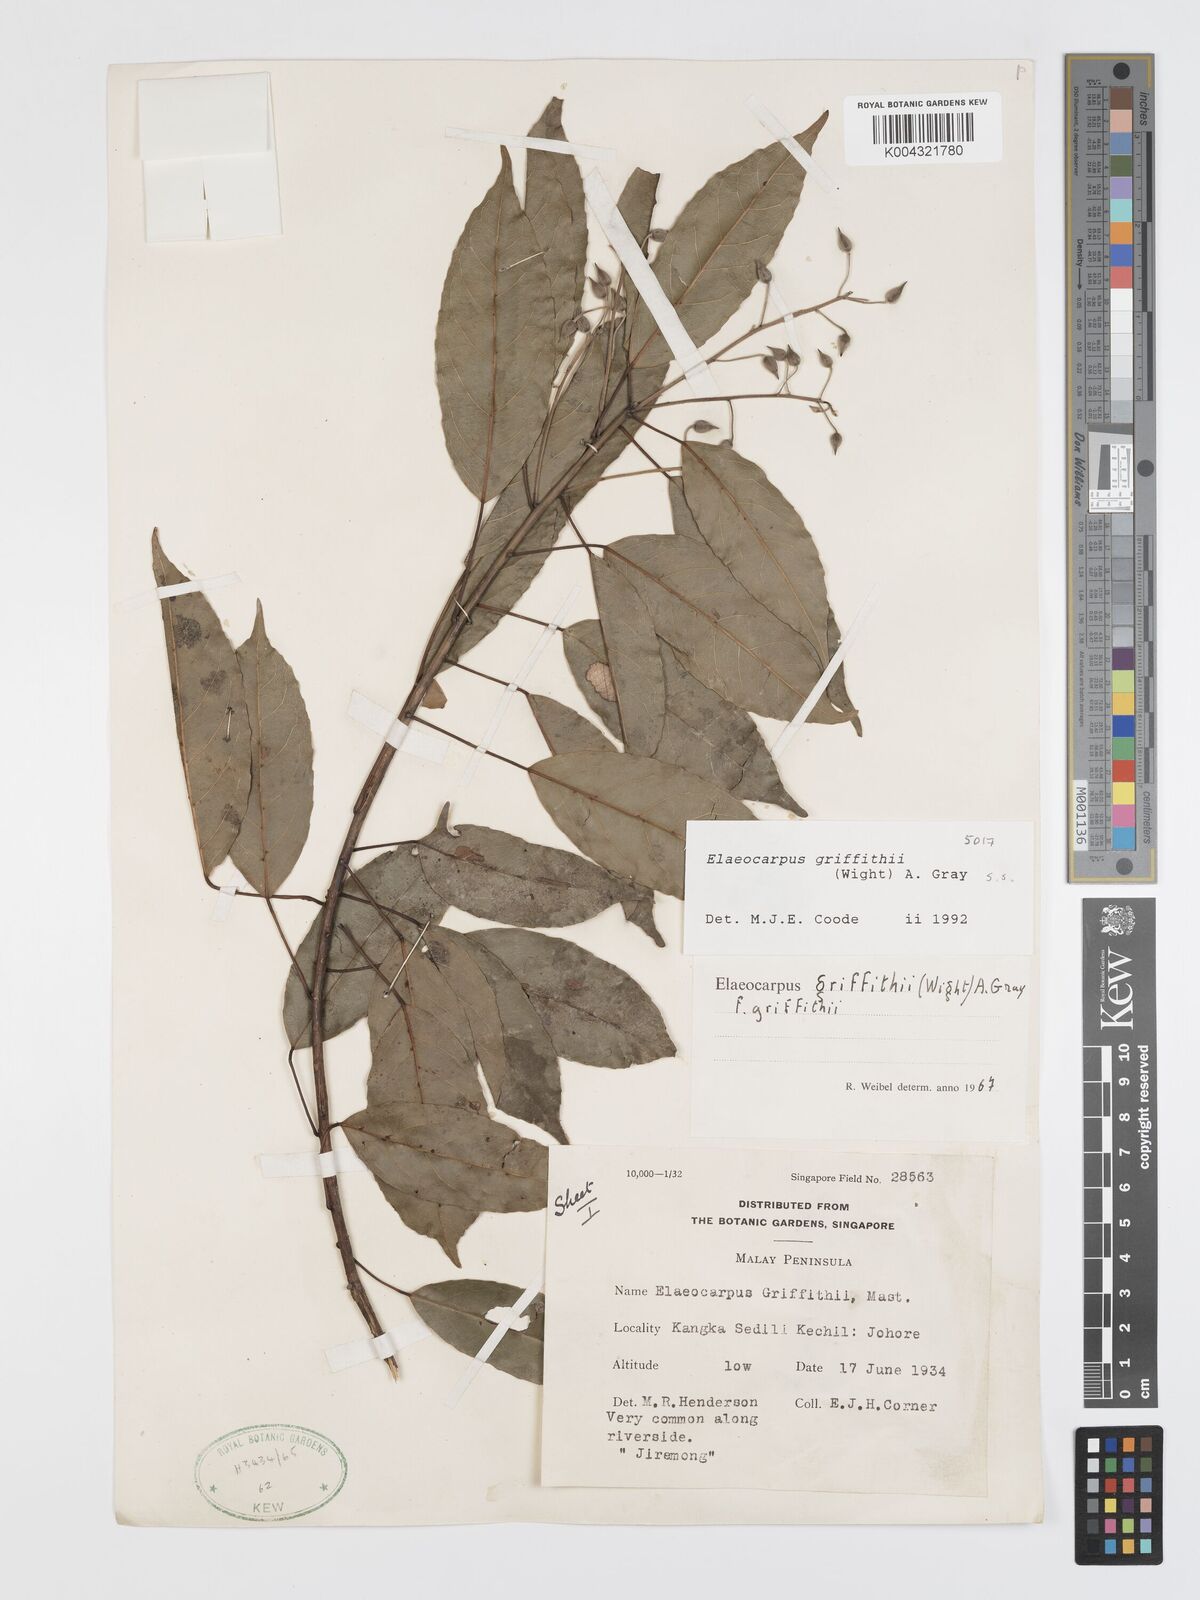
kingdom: Plantae
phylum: Tracheophyta
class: Magnoliopsida
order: Oxalidales
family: Elaeocarpaceae
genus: Elaeocarpus
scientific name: Elaeocarpus griffithii
